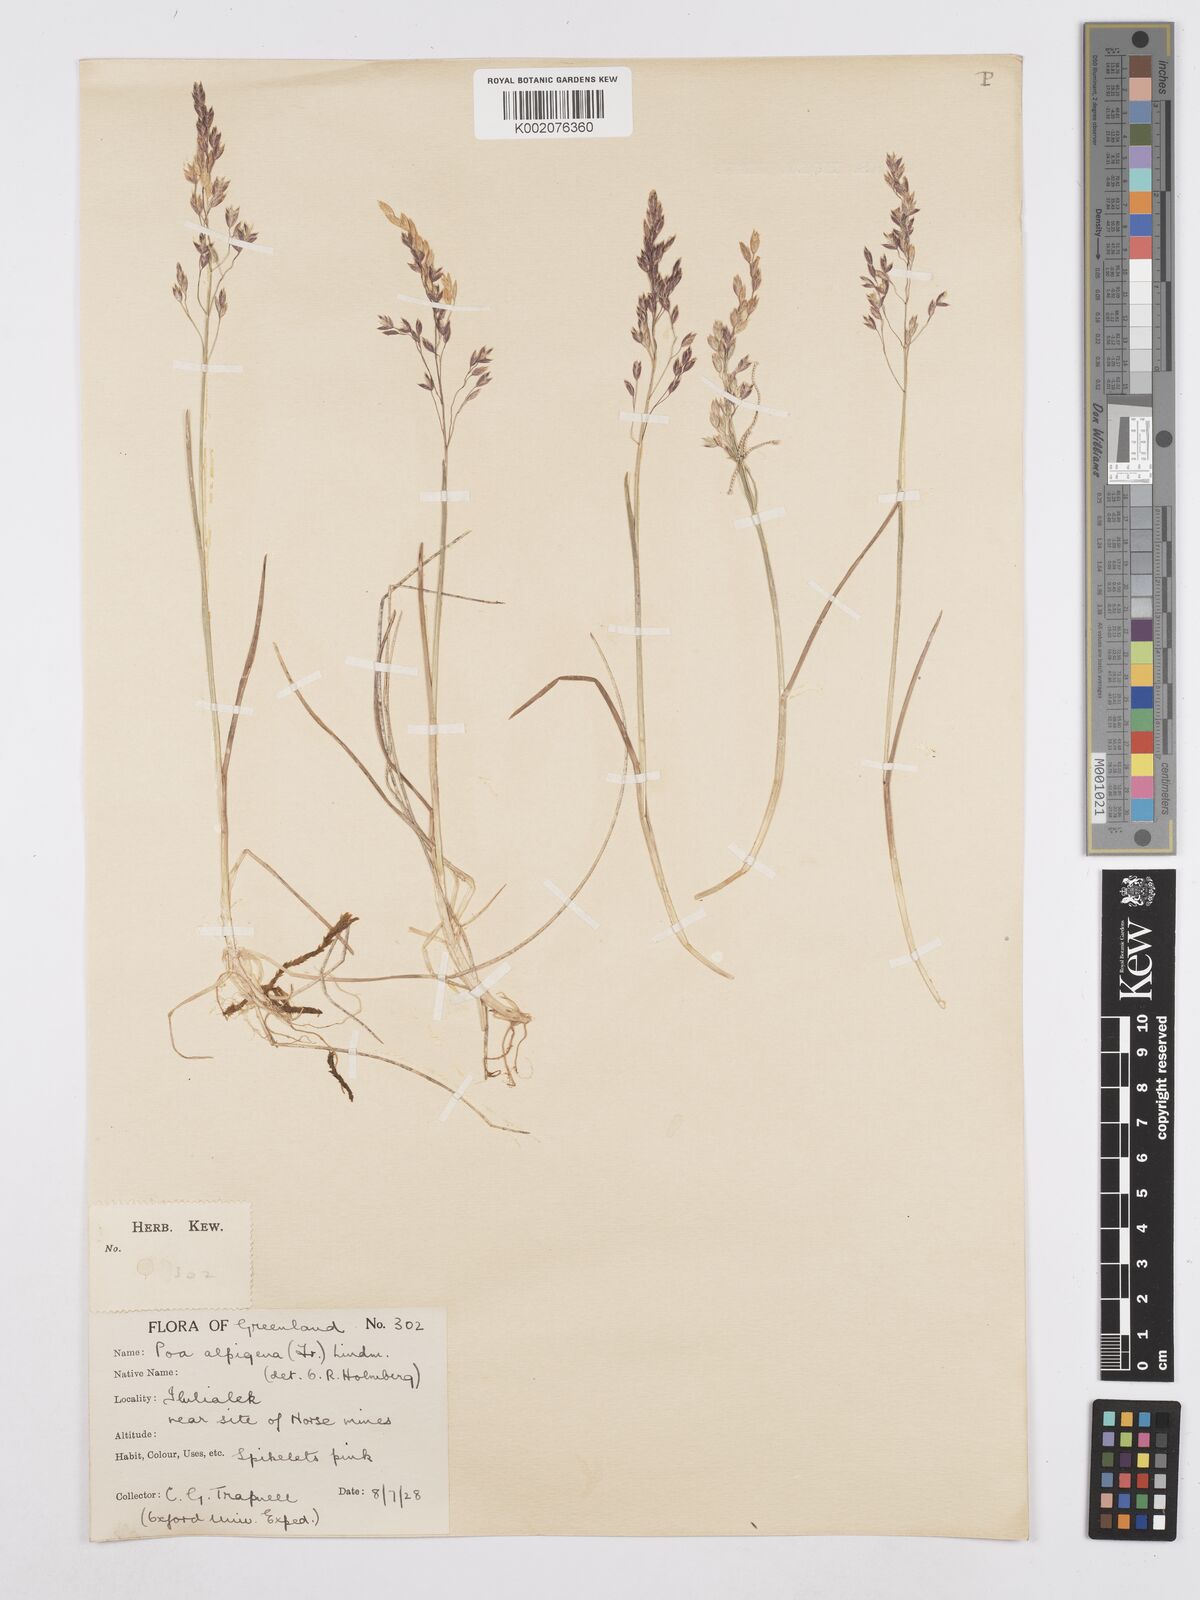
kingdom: Plantae
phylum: Tracheophyta
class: Liliopsida
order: Poales
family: Poaceae
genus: Poa
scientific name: Poa
